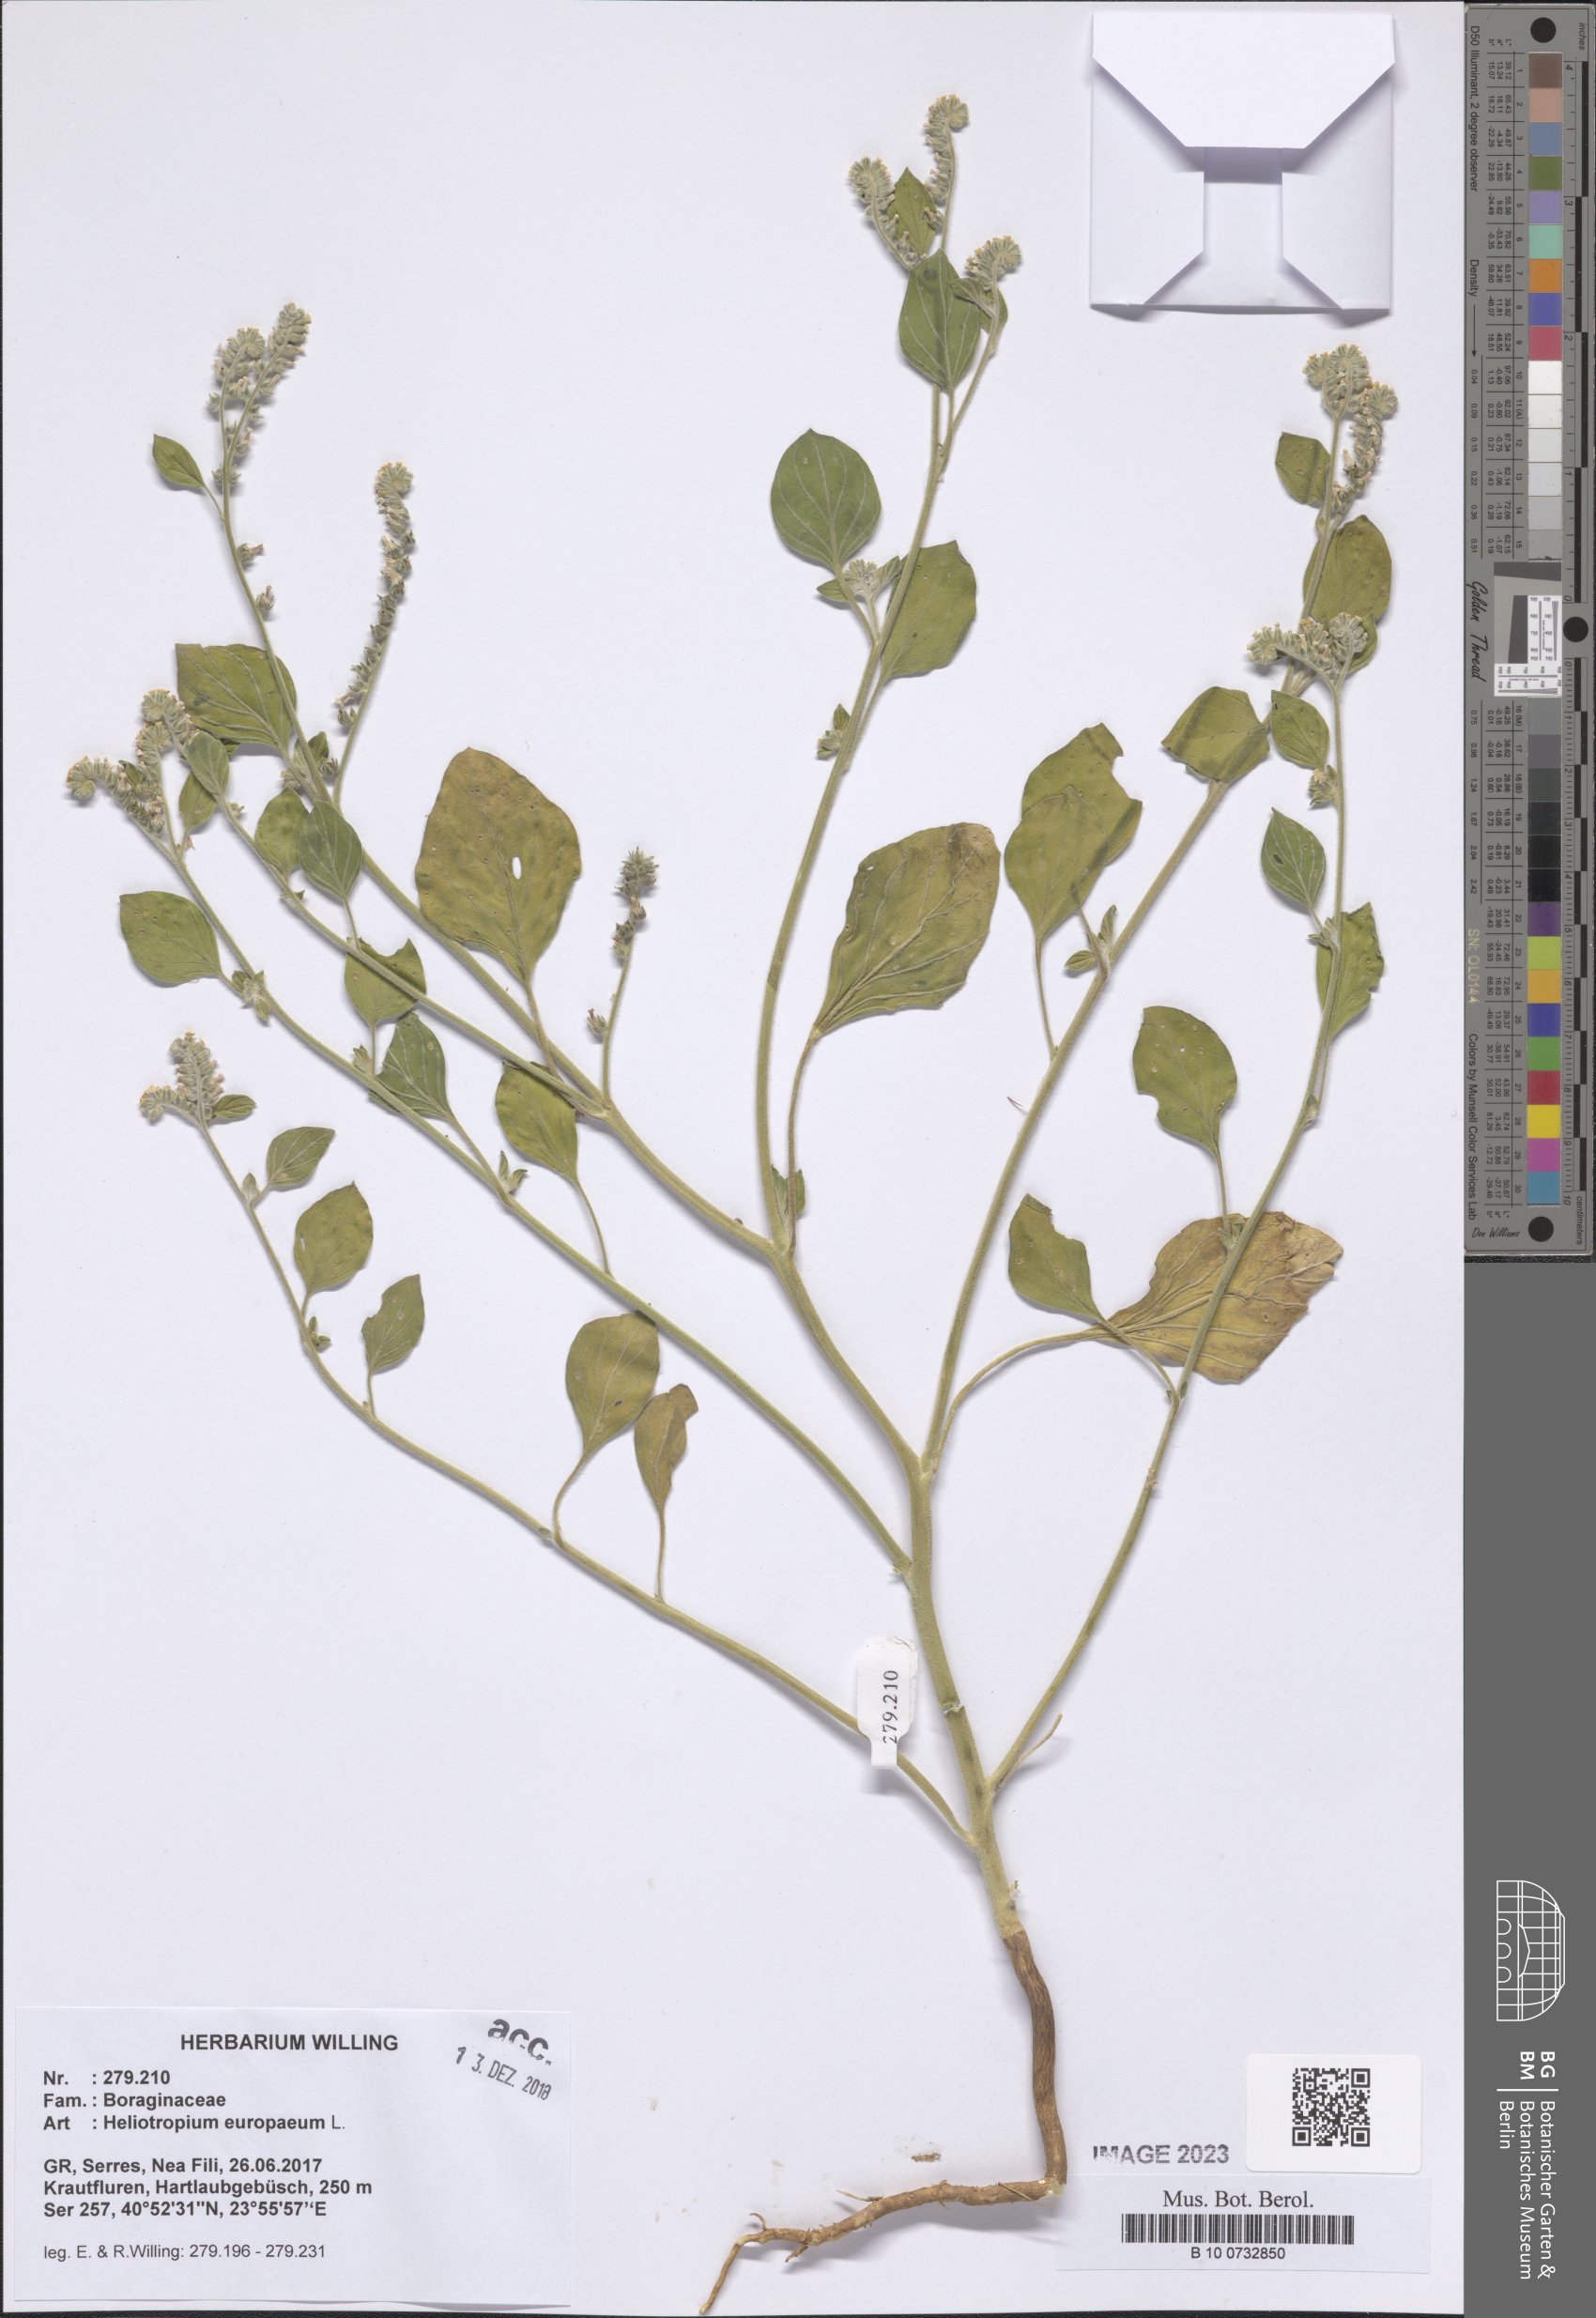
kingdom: Plantae
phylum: Tracheophyta
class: Magnoliopsida
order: Boraginales
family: Heliotropiaceae
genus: Heliotropium
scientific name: Heliotropium europaeum
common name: European heliotrope
